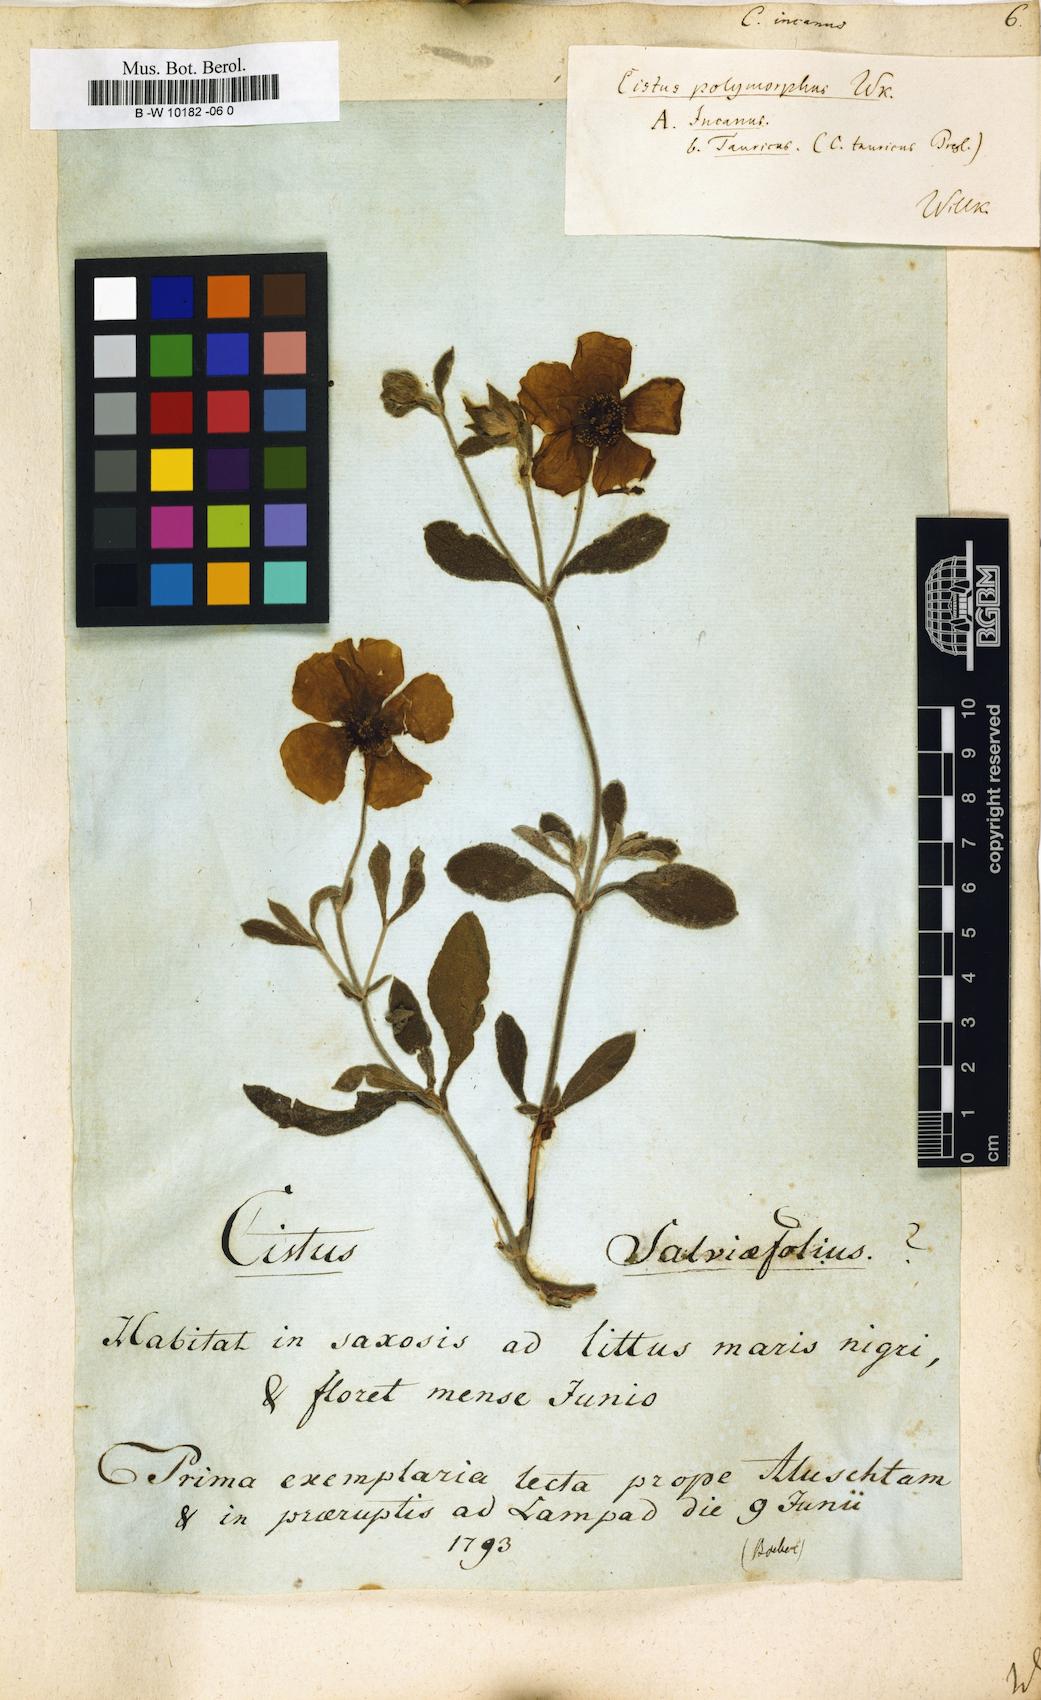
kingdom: Plantae
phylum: Tracheophyta
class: Magnoliopsida
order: Malvales
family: Cistaceae
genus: Cistus
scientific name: Cistus incanus
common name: Hairy rockrose
